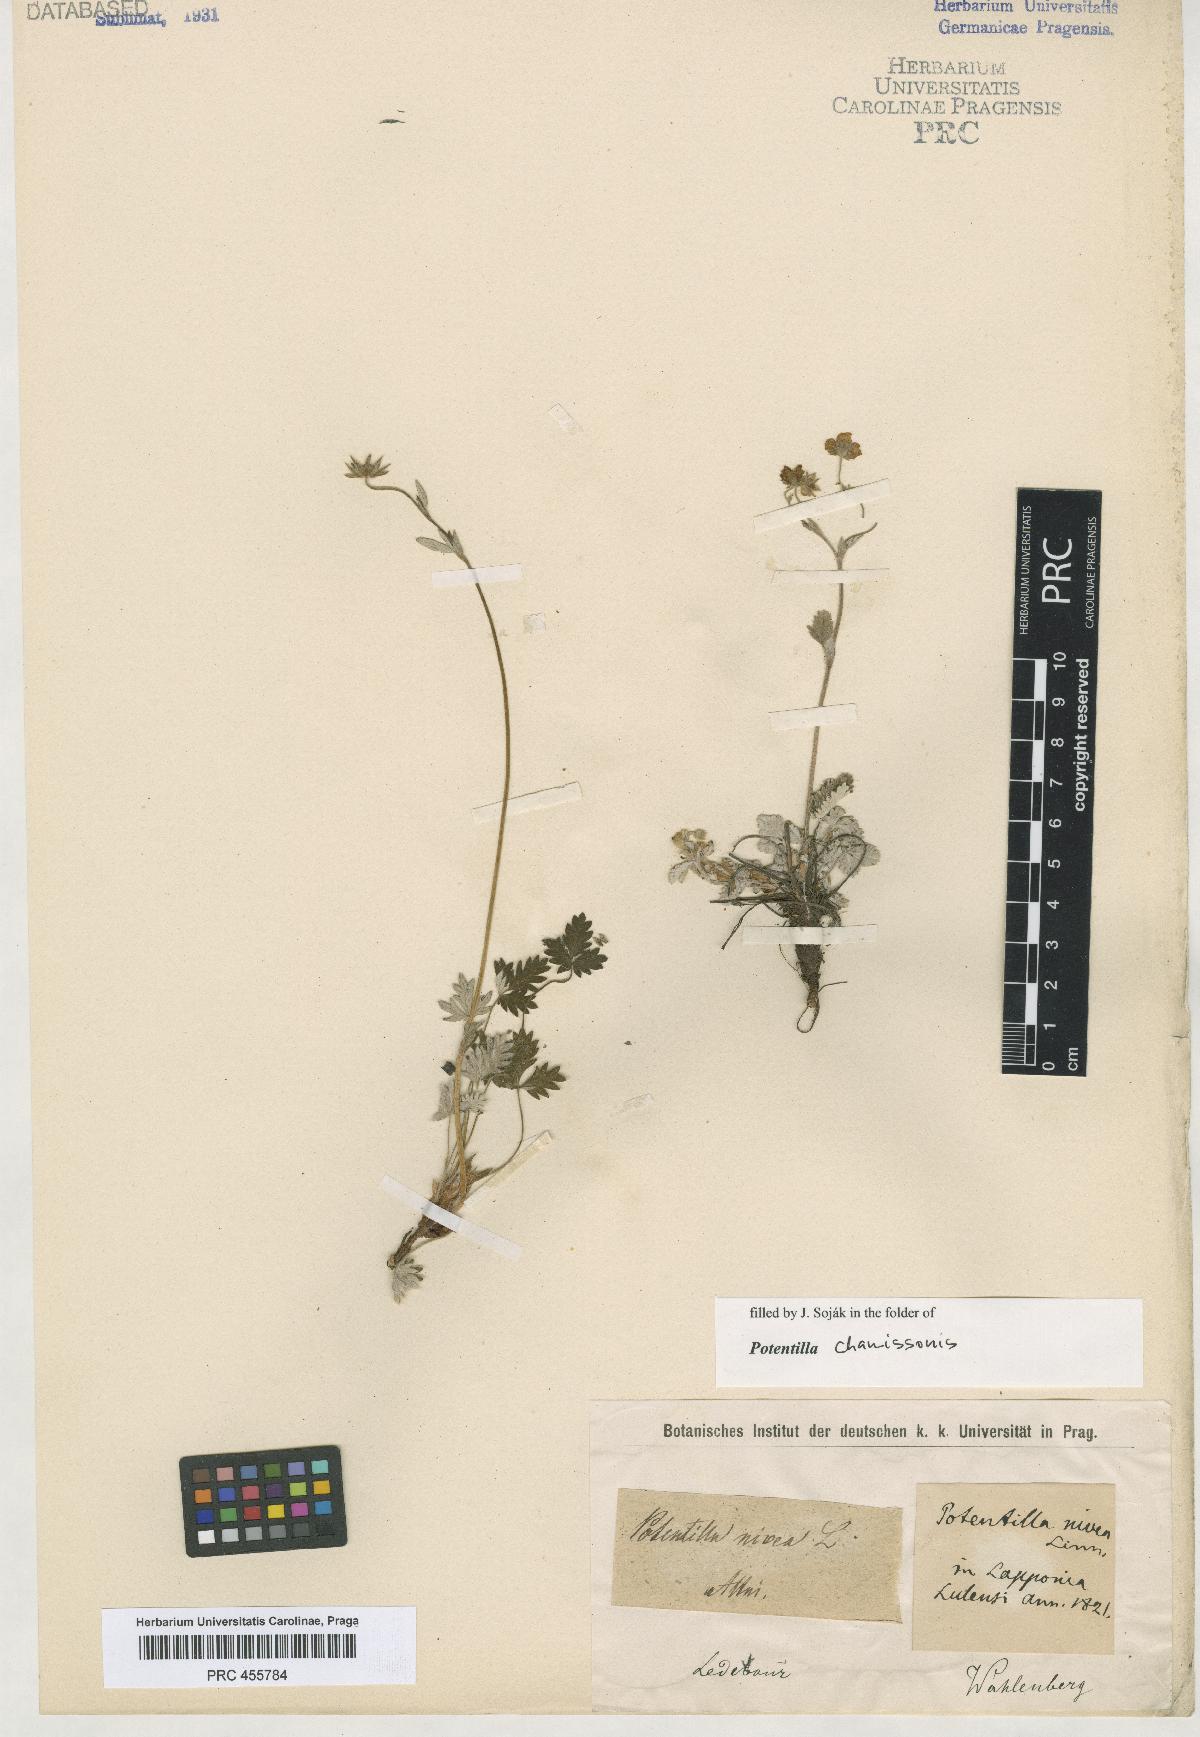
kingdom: Plantae
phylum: Tracheophyta
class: Magnoliopsida
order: Rosales
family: Rosaceae
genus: Potentilla
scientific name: Potentilla nivea
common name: Snow cinquefoil
